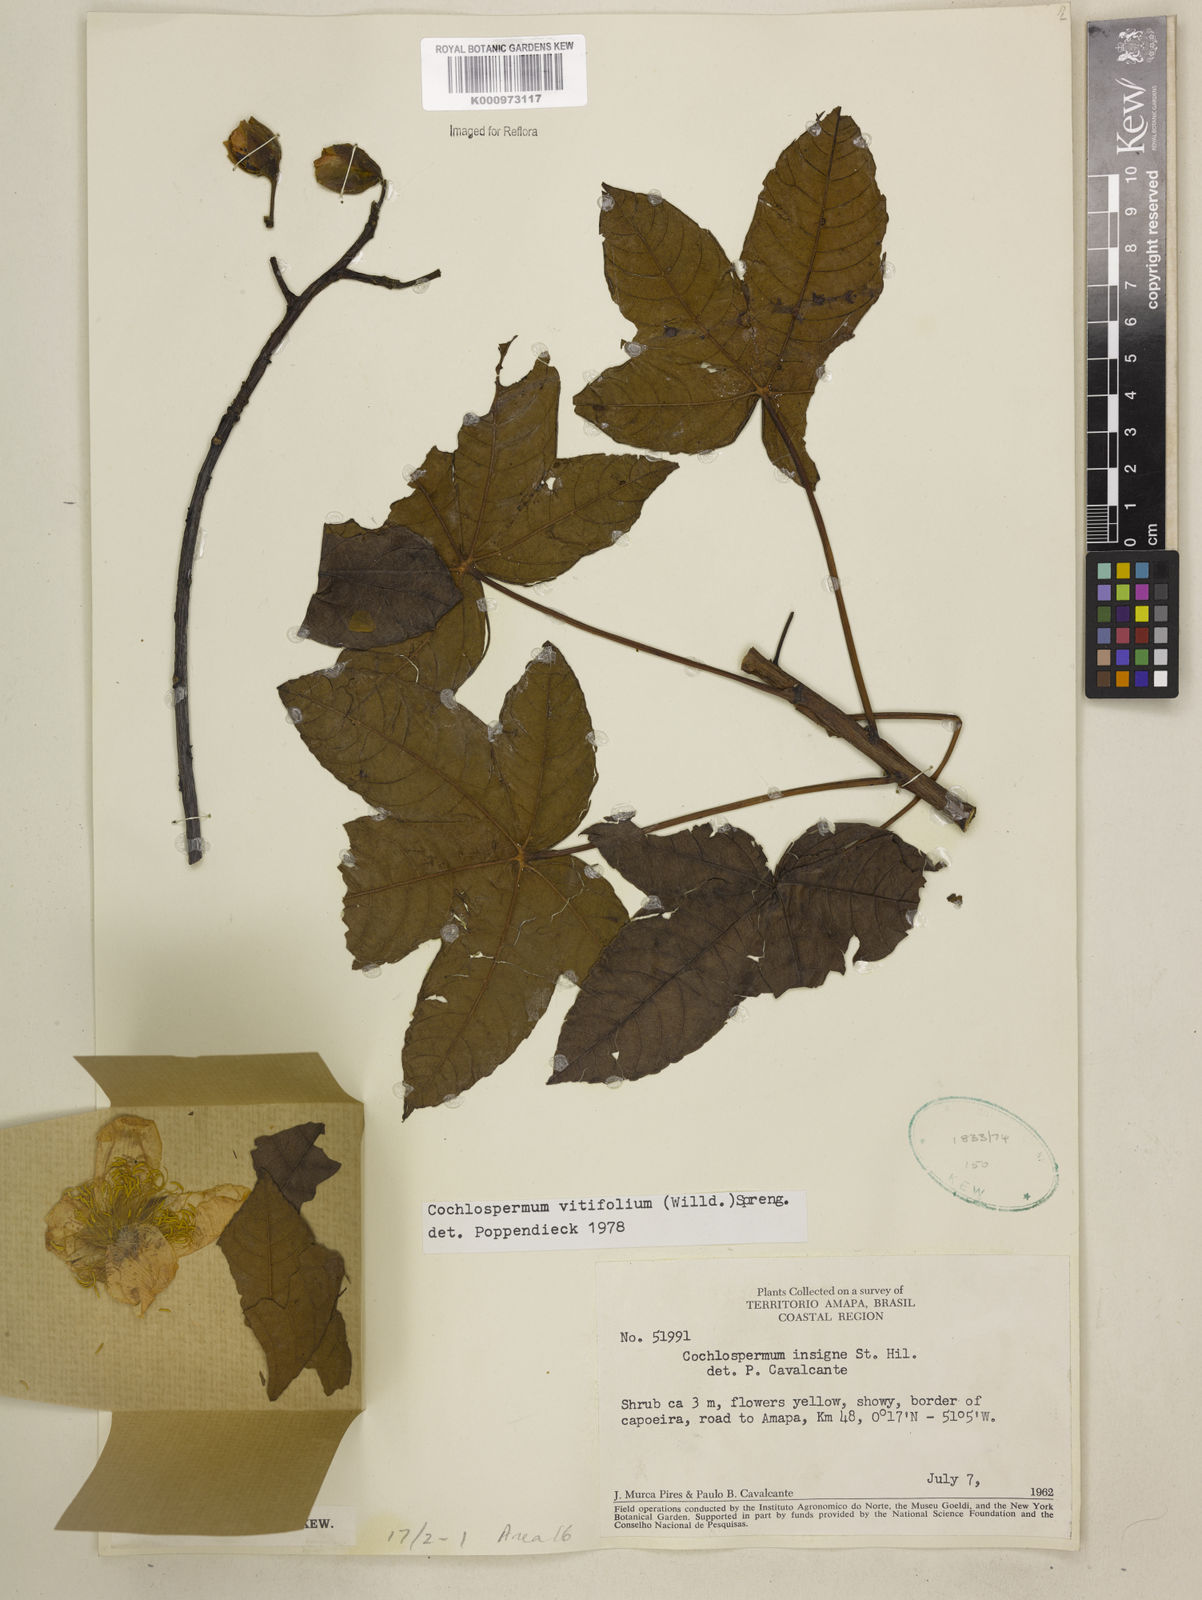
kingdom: Plantae
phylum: Tracheophyta
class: Magnoliopsida
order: Malvales
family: Cochlospermaceae
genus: Cochlospermum
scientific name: Cochlospermum regium
